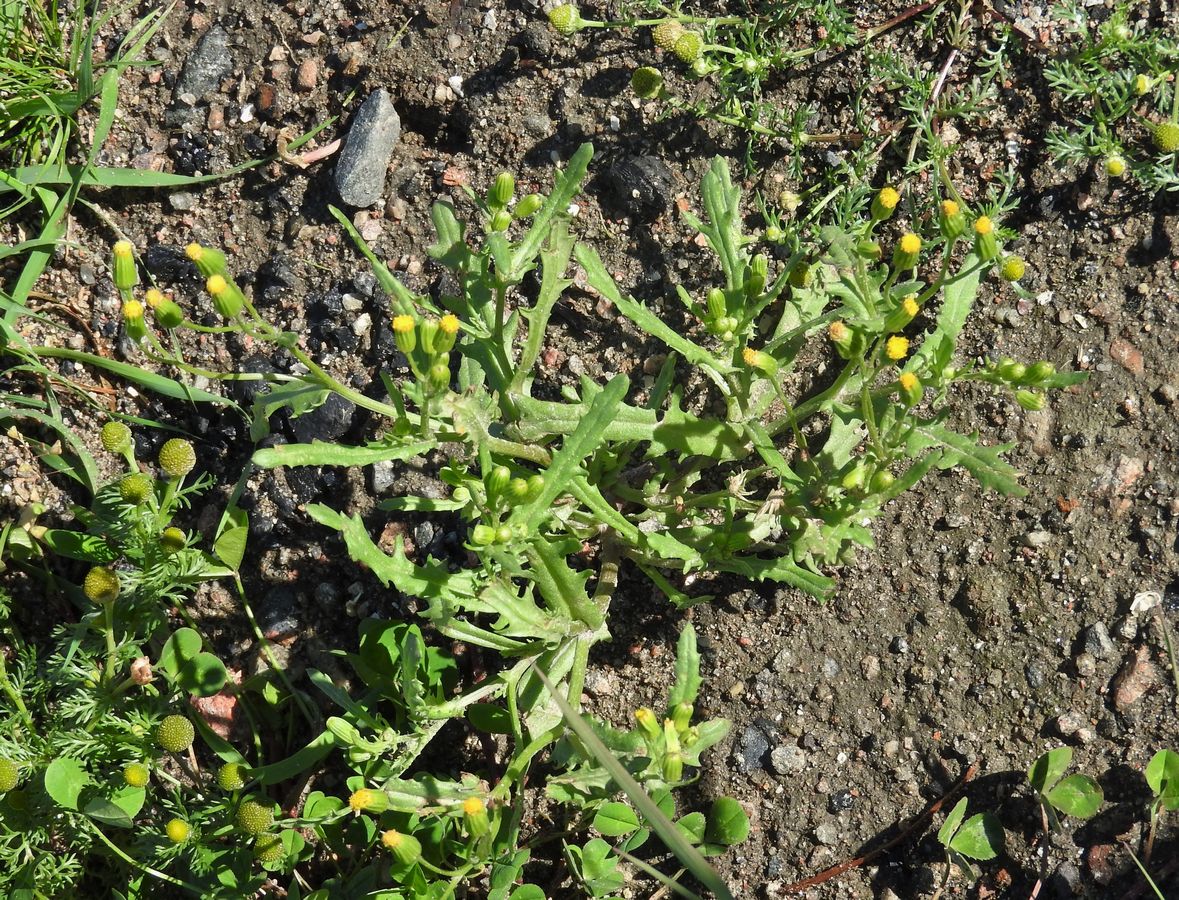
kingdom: Plantae
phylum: Tracheophyta
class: Magnoliopsida
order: Asterales
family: Asteraceae
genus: Senecio
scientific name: Senecio dubitabilis
